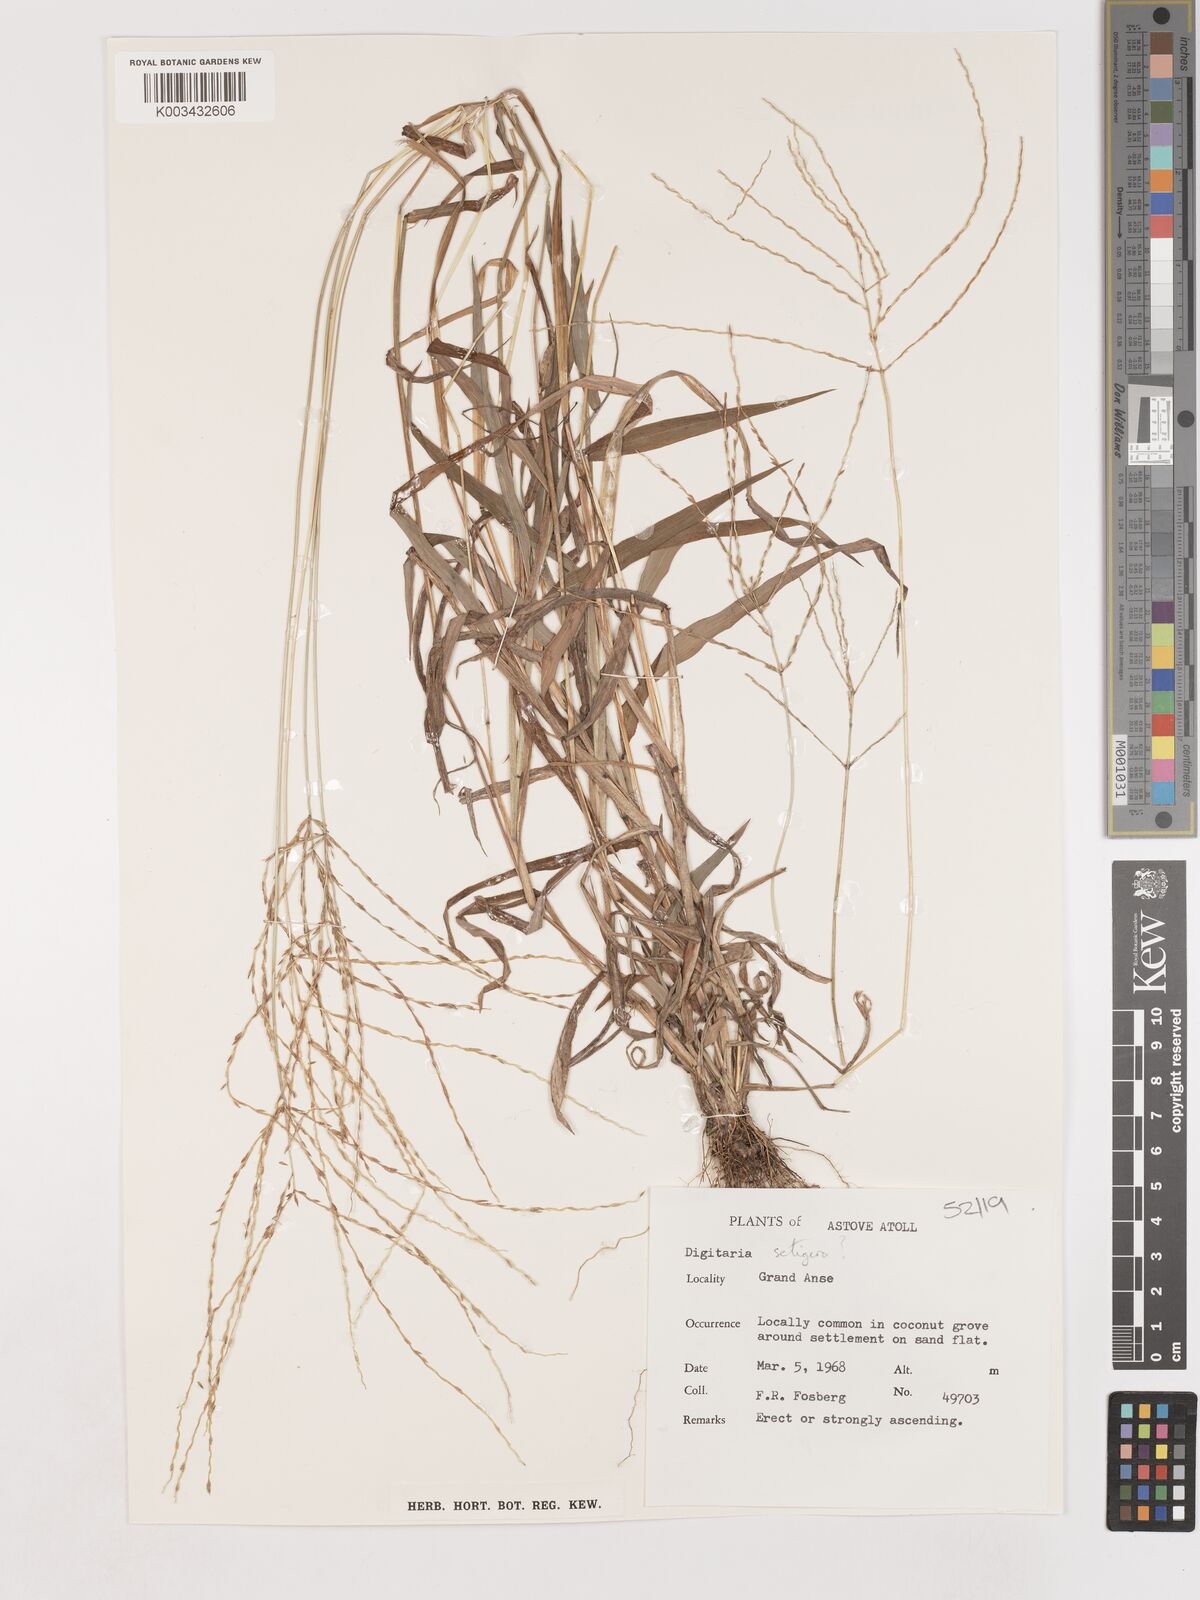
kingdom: Plantae
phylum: Tracheophyta
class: Liliopsida
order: Poales
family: Poaceae
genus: Digitaria
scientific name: Digitaria horizontalis
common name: Jamaican crabgrass
